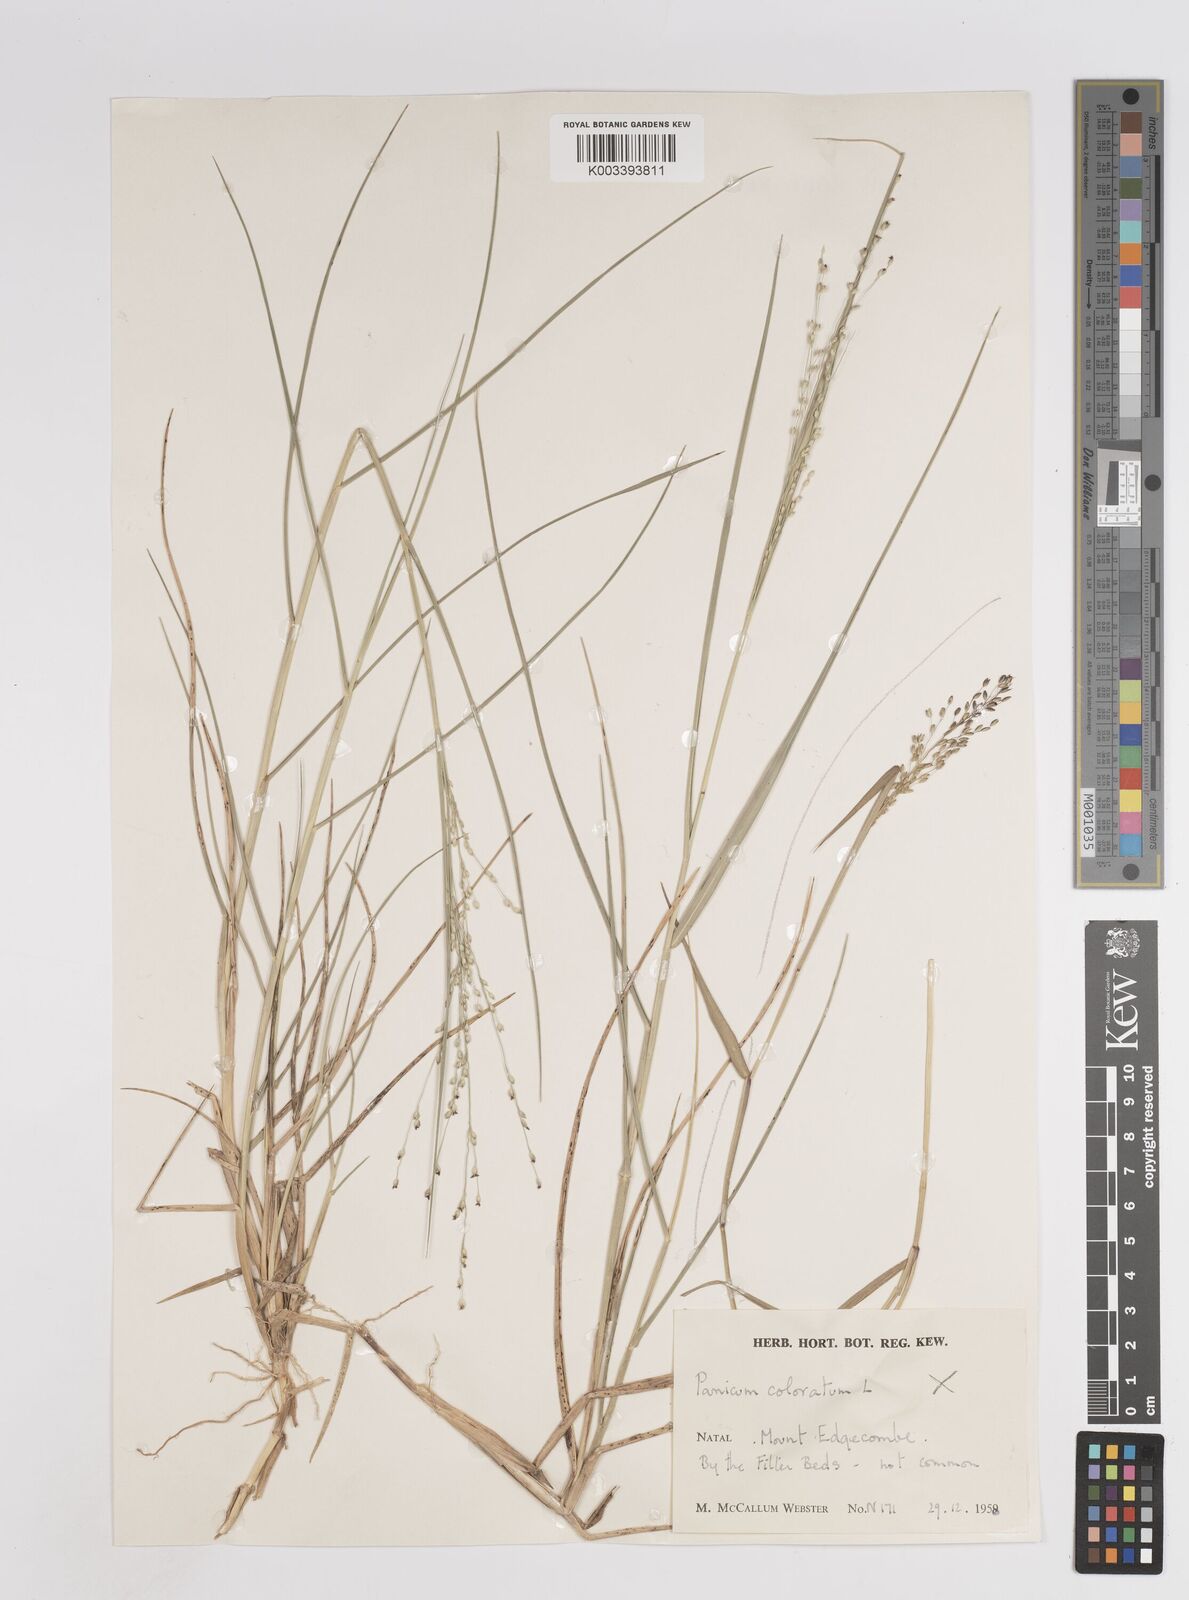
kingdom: Plantae
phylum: Tracheophyta
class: Liliopsida
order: Poales
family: Poaceae
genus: Panicum
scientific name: Panicum repens
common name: Torpedo grass
